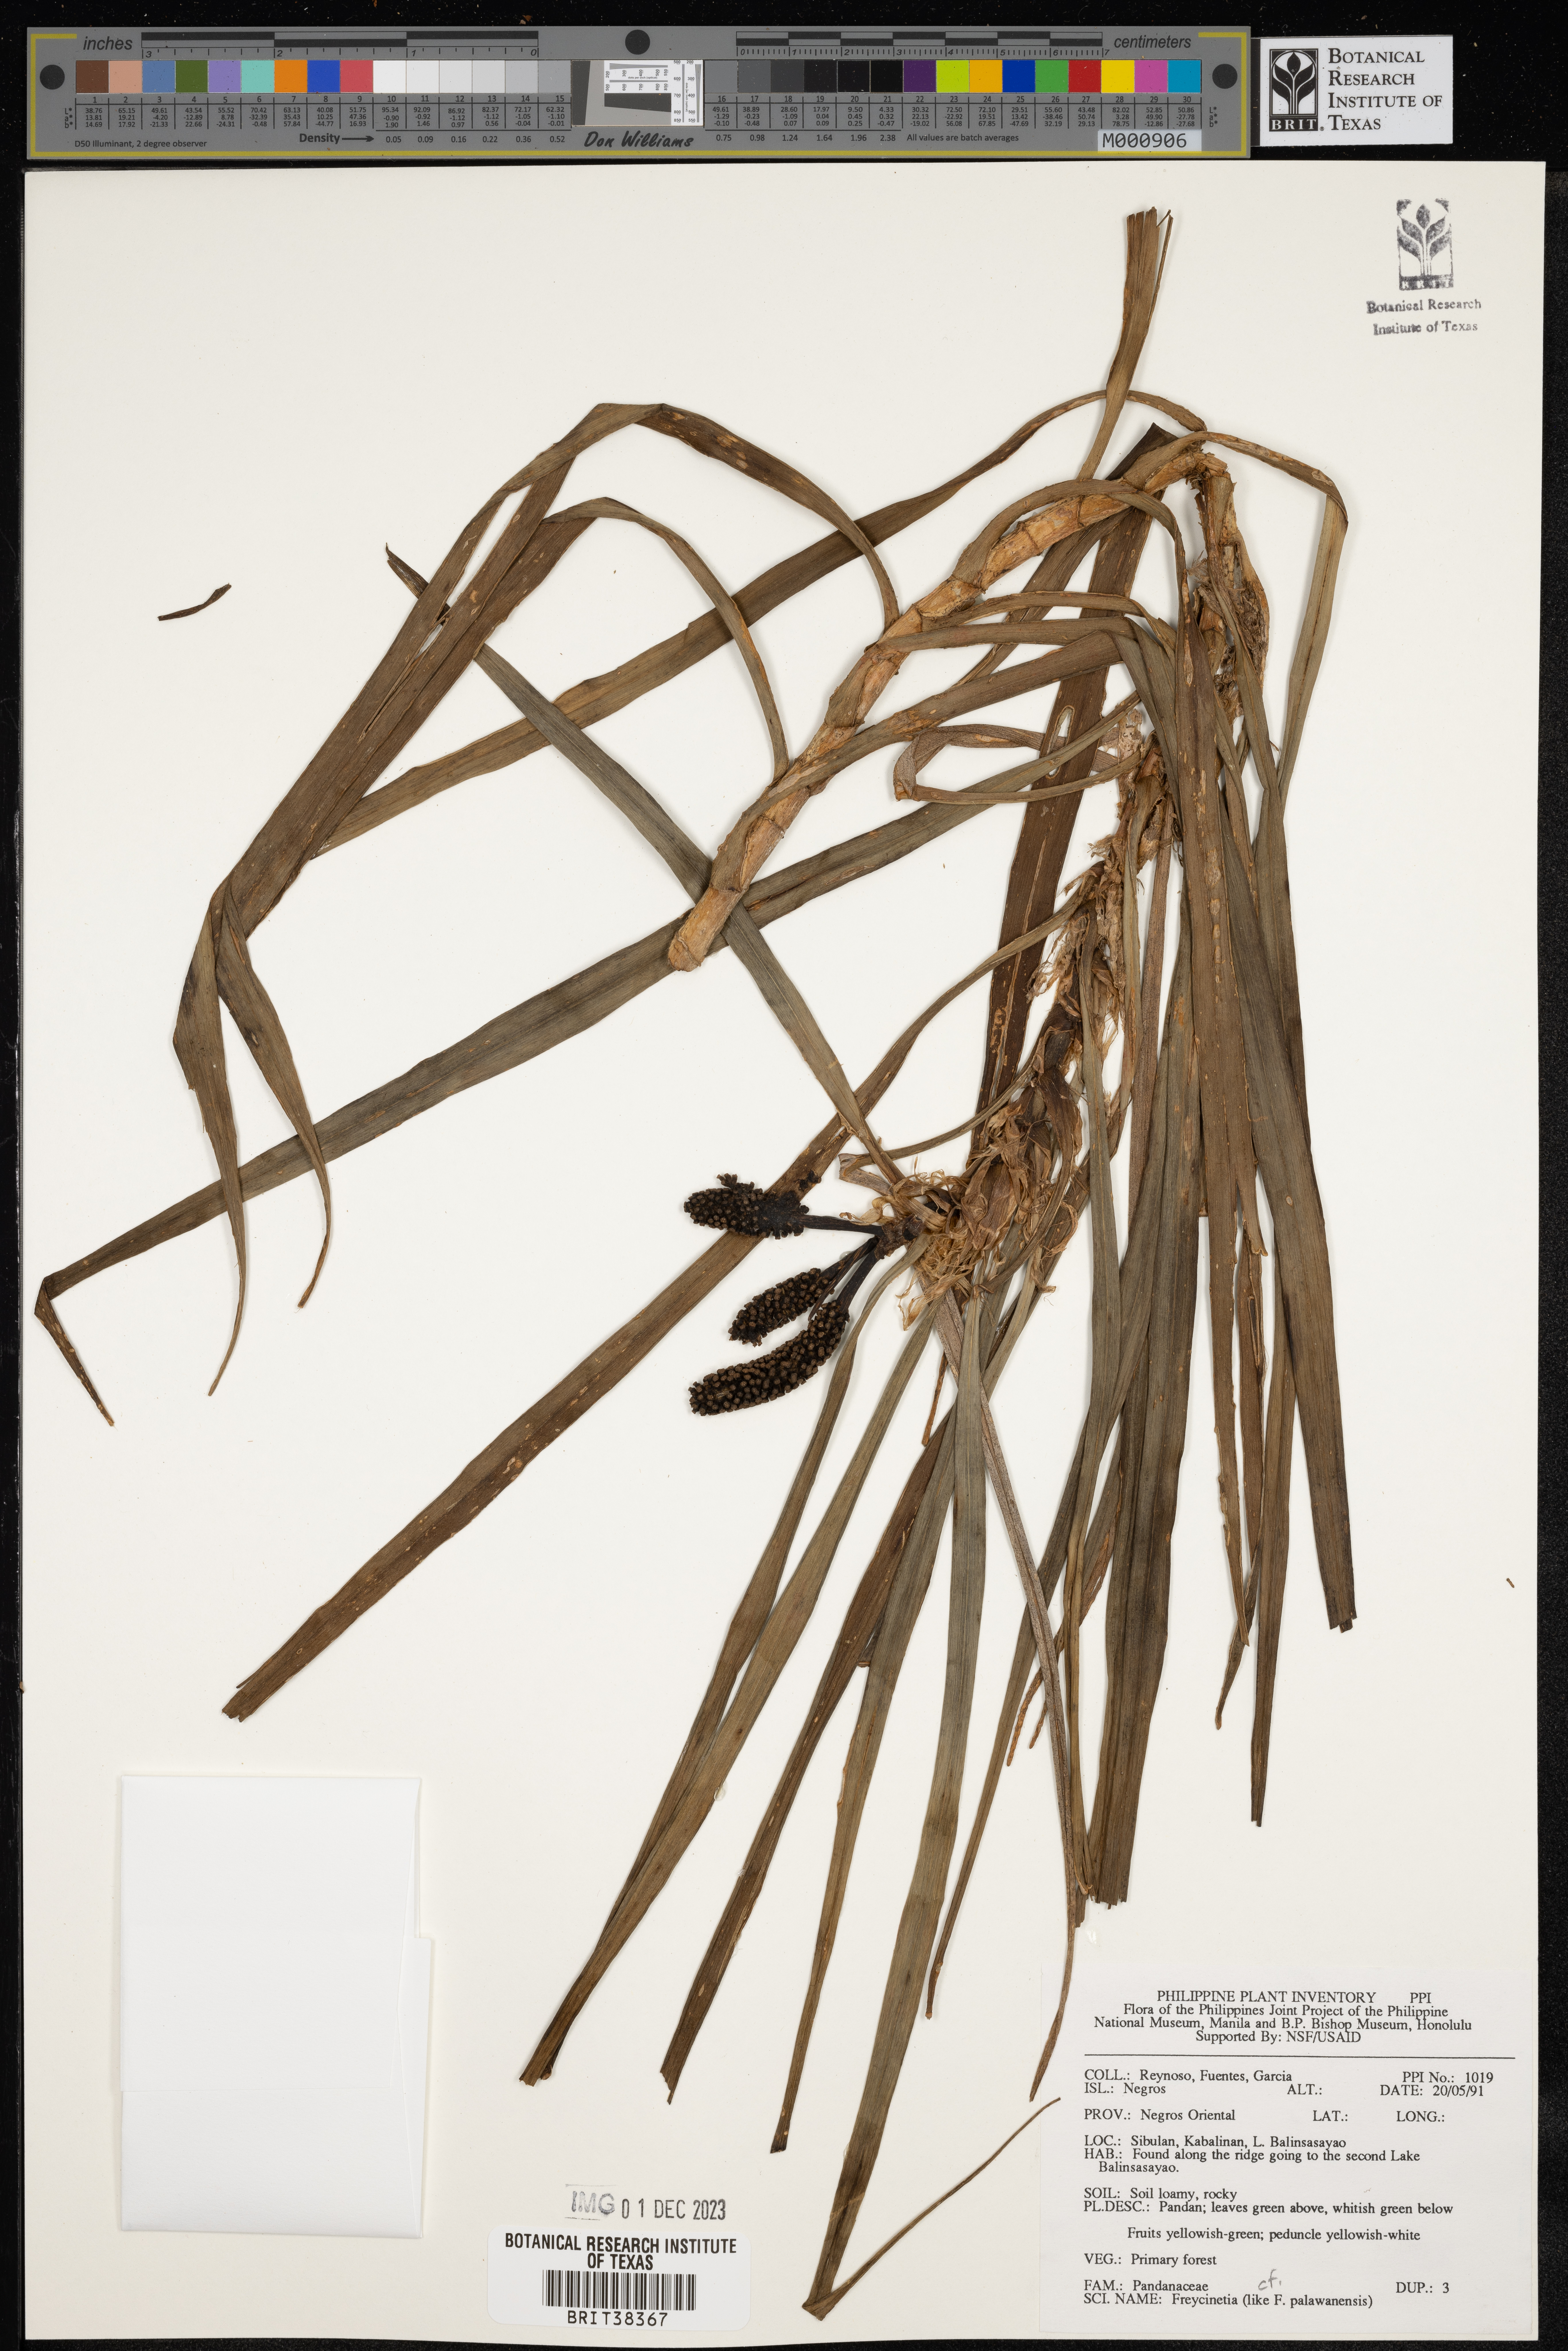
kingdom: Plantae
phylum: Tracheophyta
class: Liliopsida
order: Pandanales
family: Pandanaceae
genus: Freycinetia
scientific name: Freycinetia palawanensis
